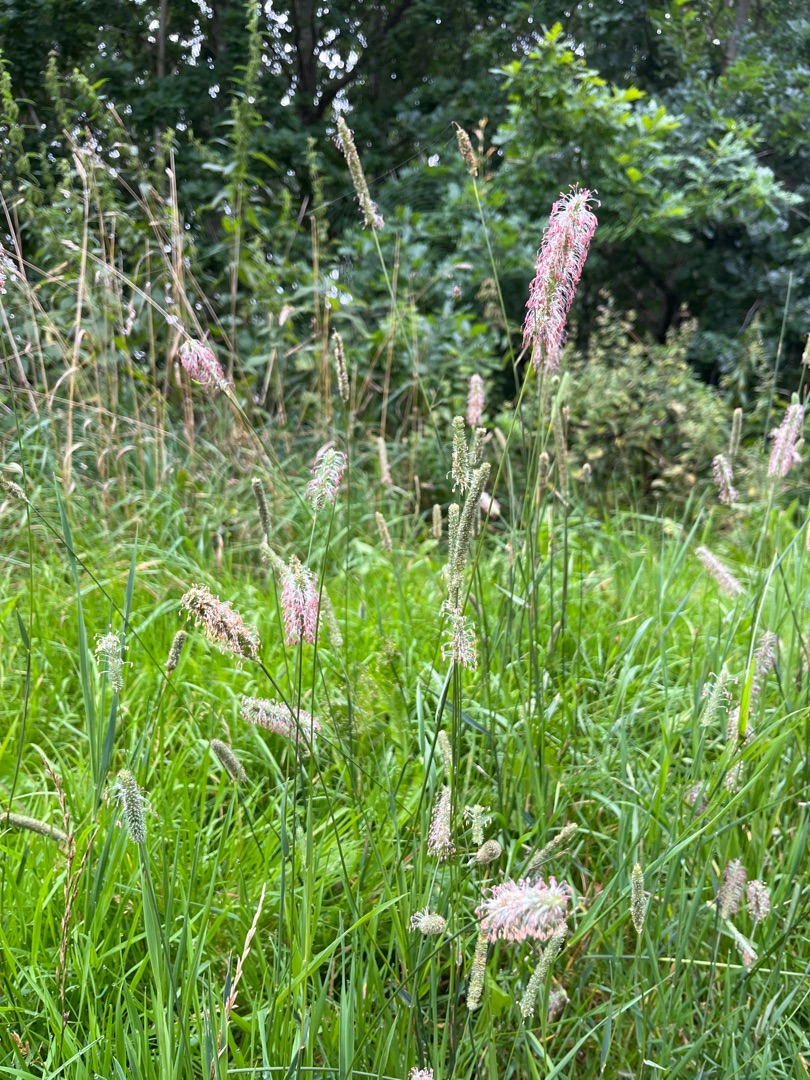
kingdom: Plantae
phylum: Tracheophyta
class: Liliopsida
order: Poales
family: Poaceae
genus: Phleum
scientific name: Phleum pratense
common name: Eng-rottehale
